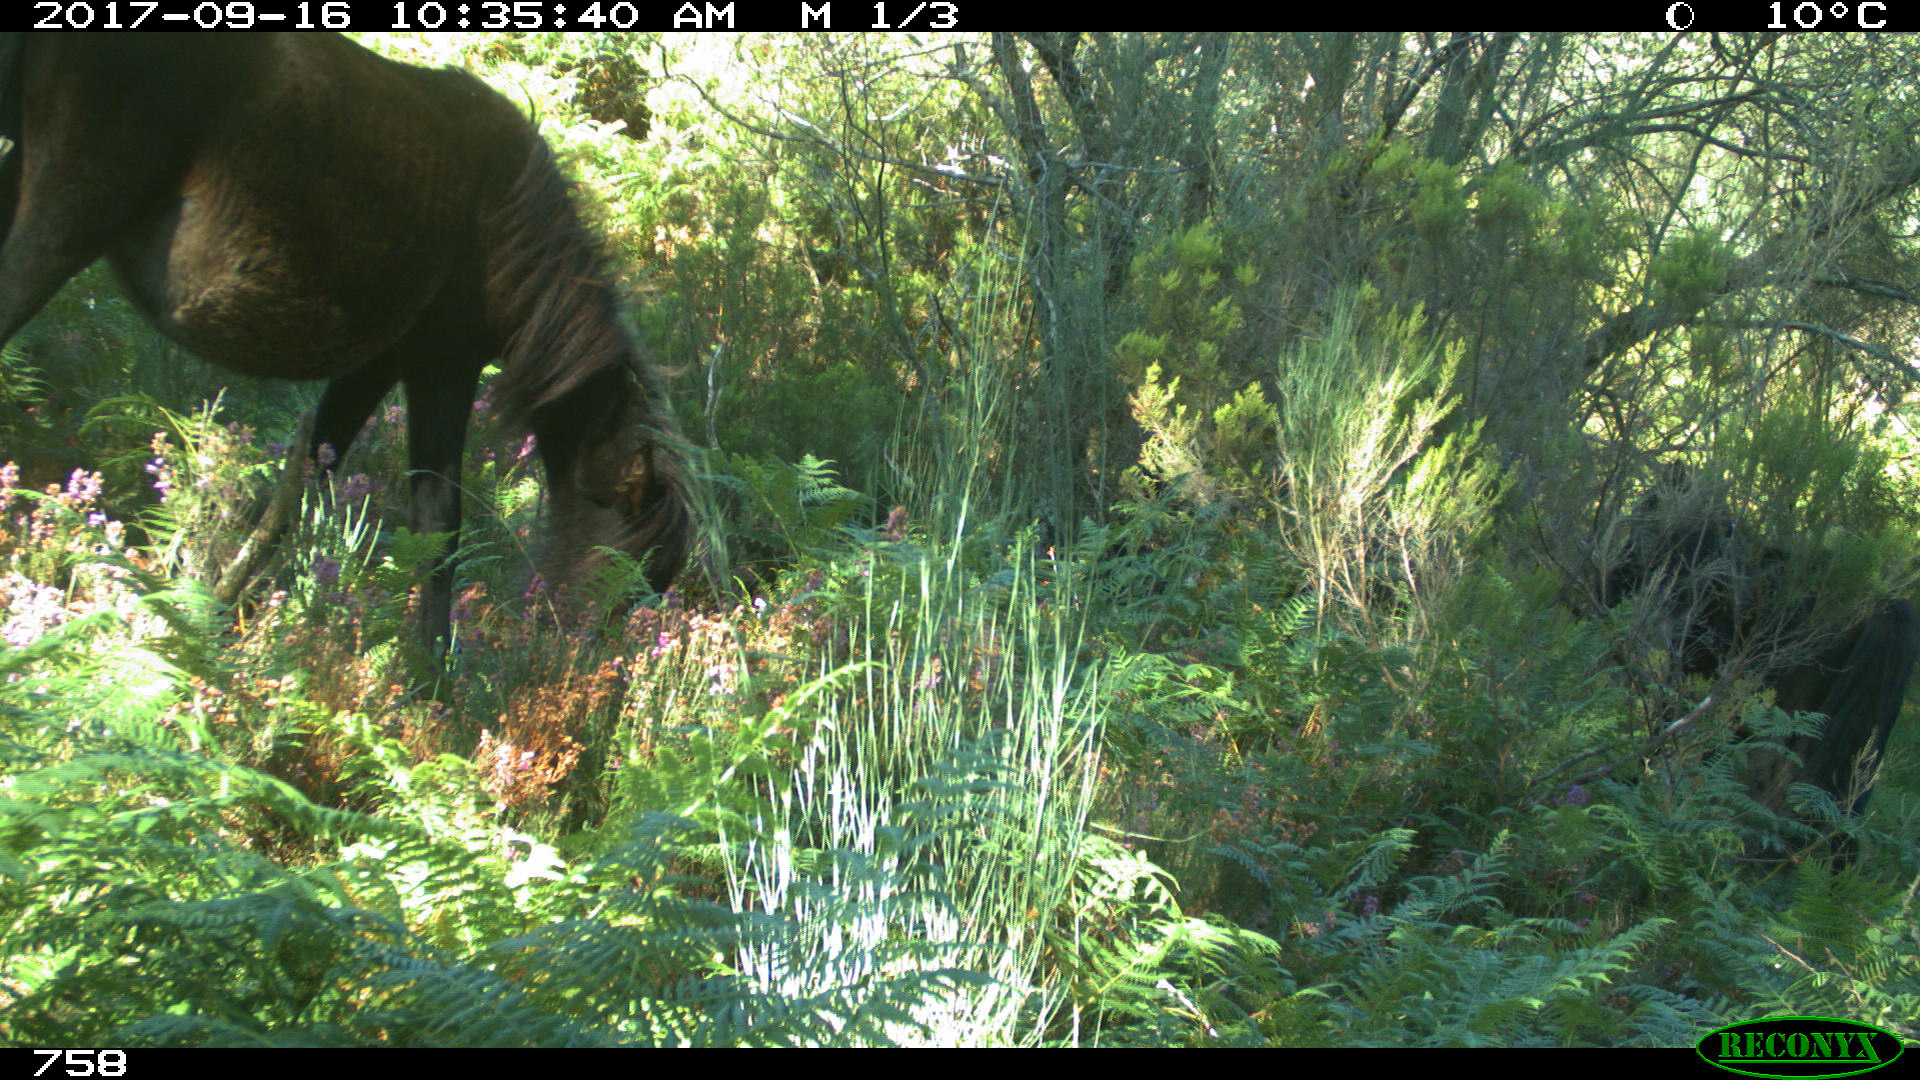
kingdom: Animalia
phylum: Chordata
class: Mammalia
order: Perissodactyla
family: Equidae
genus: Equus
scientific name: Equus caballus
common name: Horse
